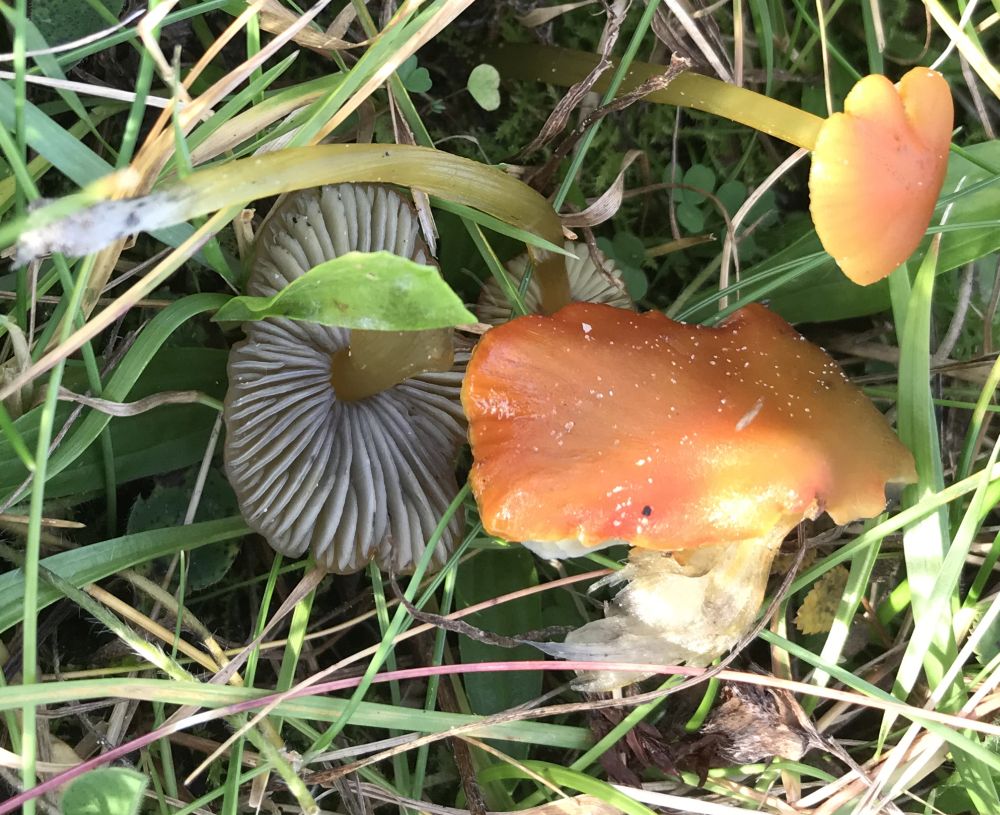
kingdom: Fungi
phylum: Basidiomycota
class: Agaricomycetes
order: Agaricales
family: Hygrophoraceae
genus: Hygrocybe
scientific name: Hygrocybe conica
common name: kegle-vokshat
